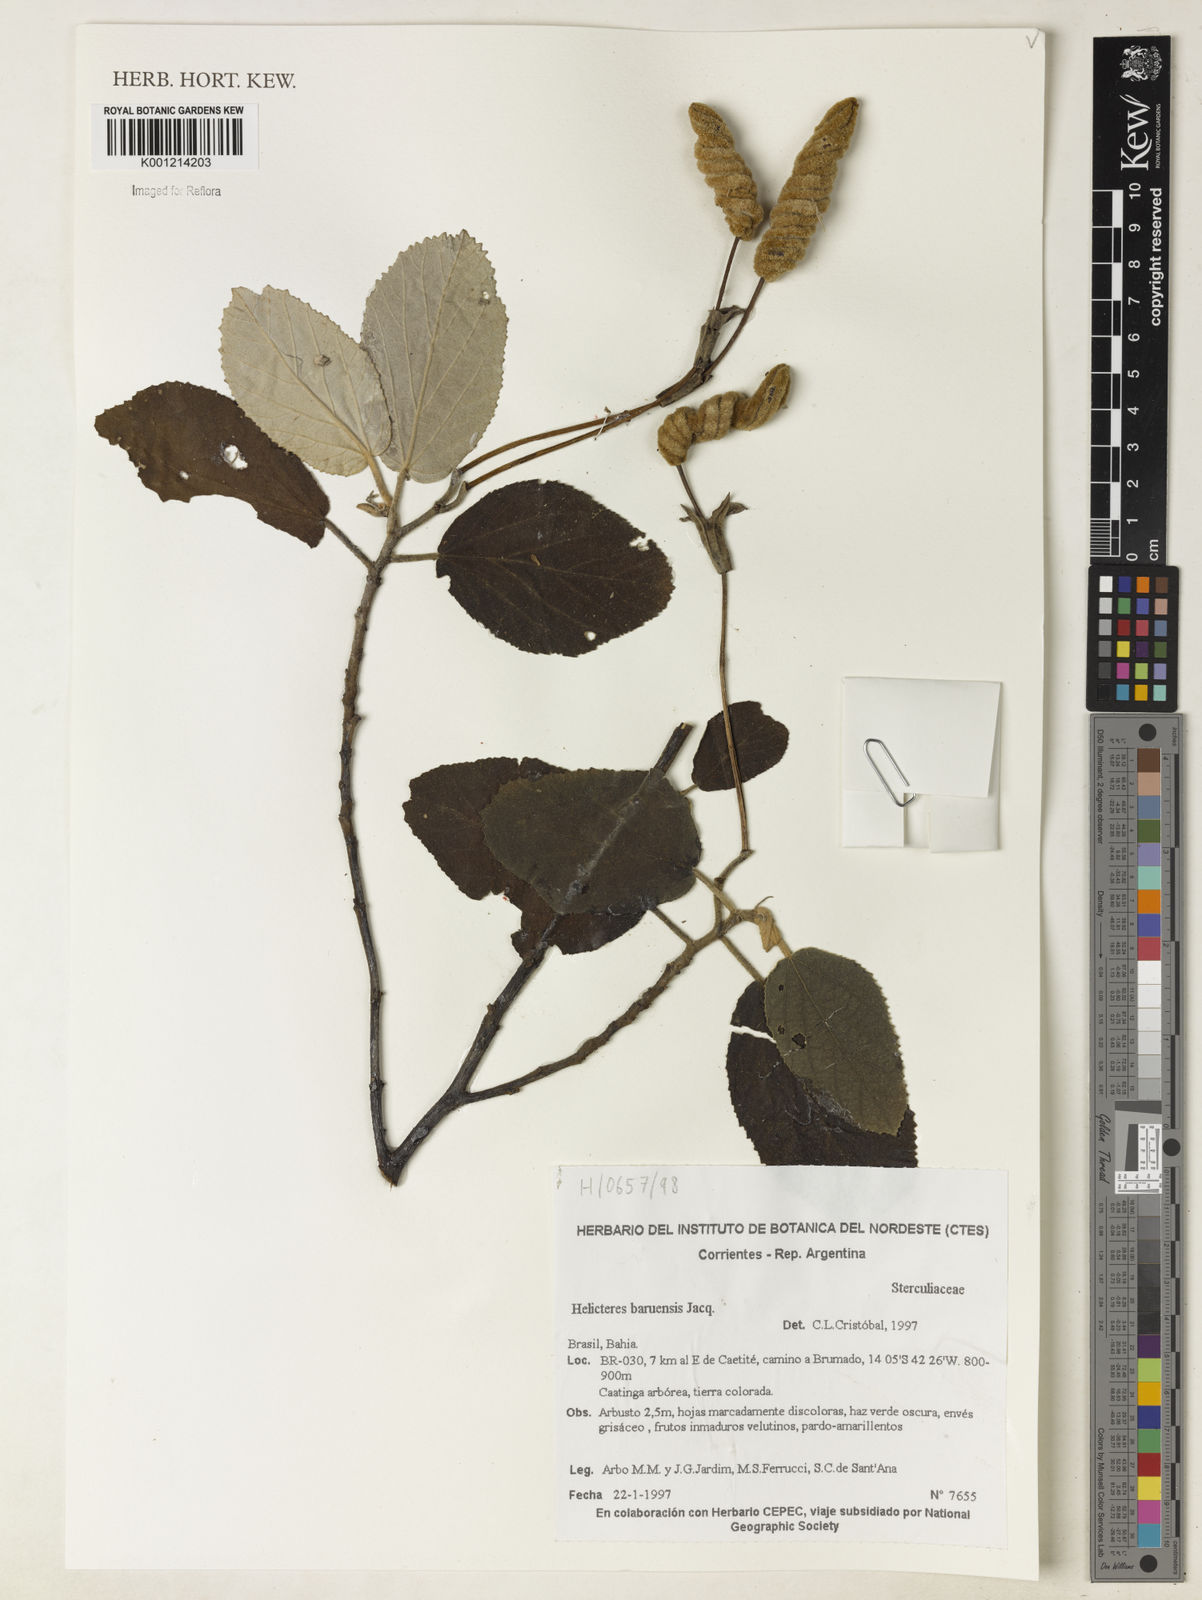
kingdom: Plantae
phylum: Tracheophyta
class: Magnoliopsida
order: Malvales
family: Malvaceae
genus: Helicteres
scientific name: Helicteres baruensis
